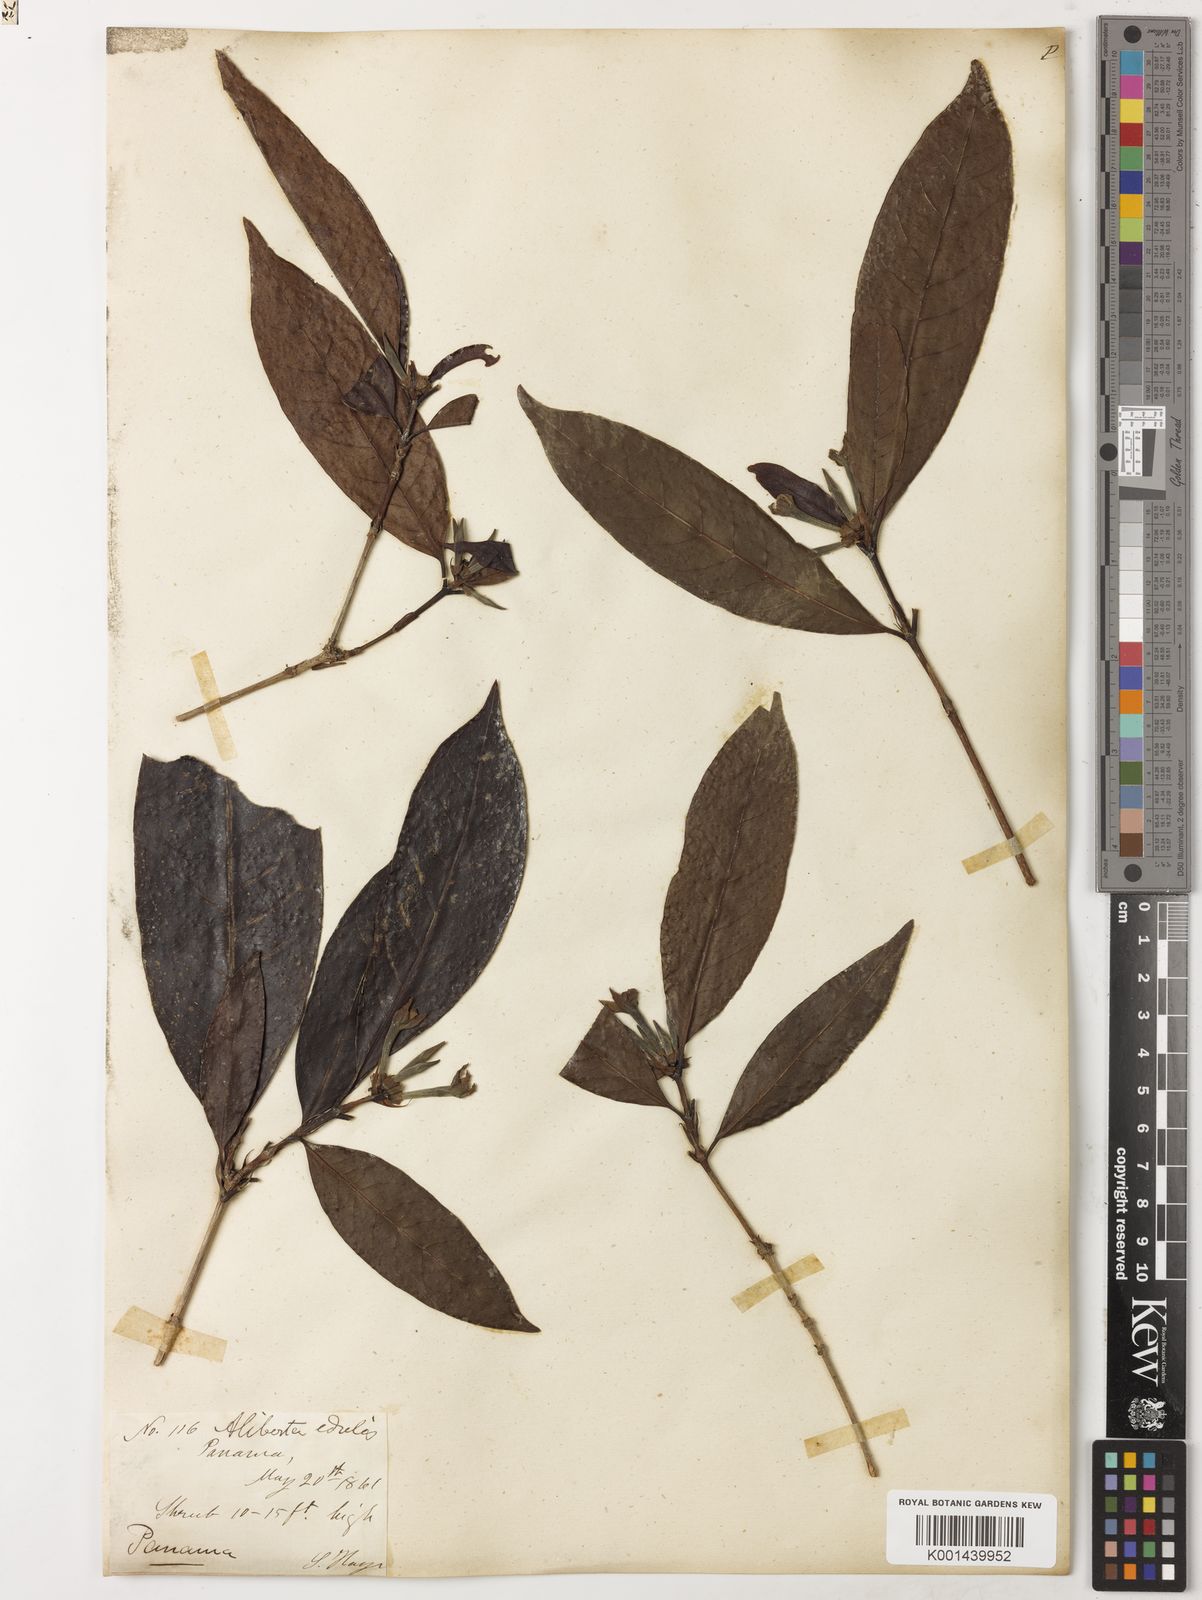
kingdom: Plantae
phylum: Tracheophyta
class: Magnoliopsida
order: Gentianales
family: Rubiaceae
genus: Alibertia
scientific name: Alibertia edulis
